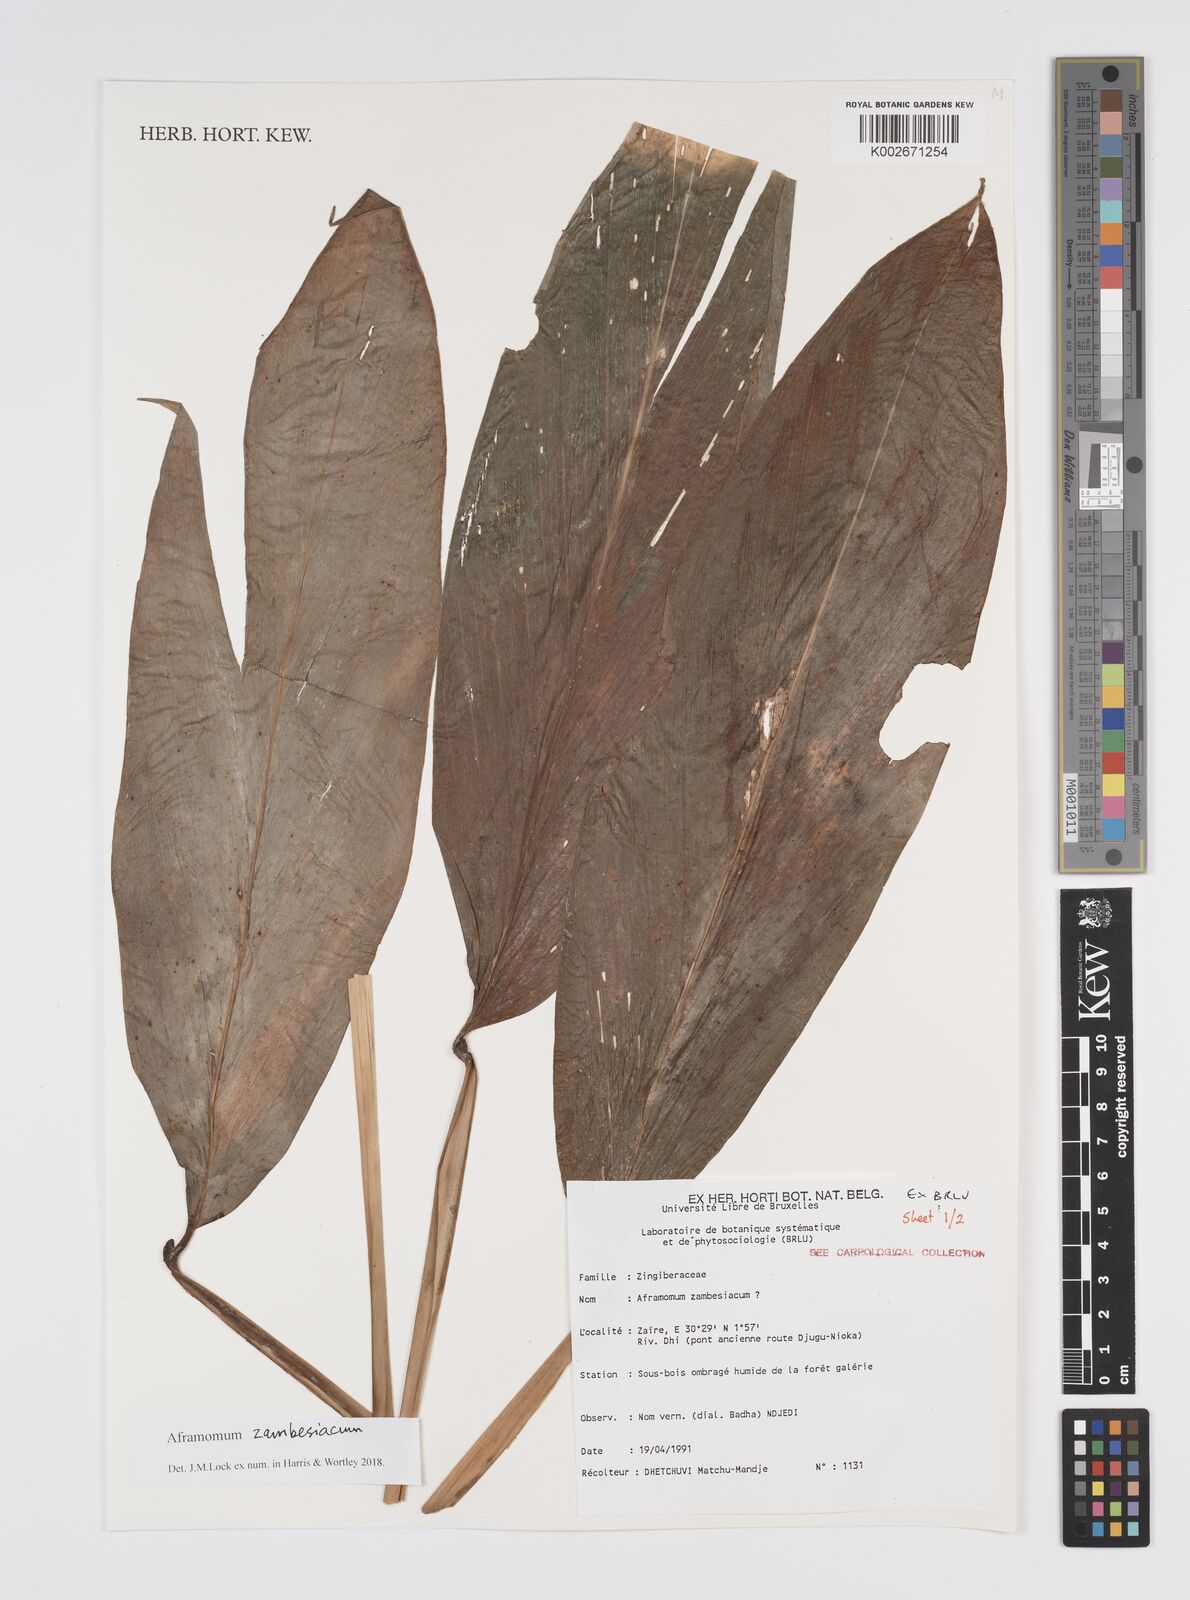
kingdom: Plantae
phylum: Tracheophyta
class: Liliopsida
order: Zingiberales
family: Zingiberaceae
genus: Aframomum
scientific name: Aframomum zambesiacum
